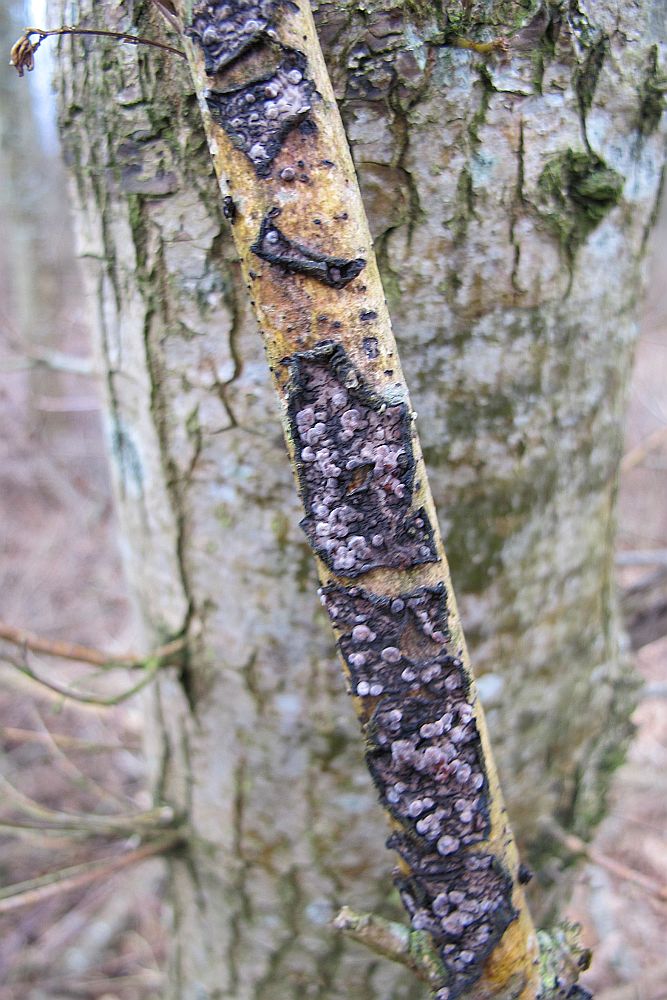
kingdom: Fungi
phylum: Basidiomycota
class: Agaricomycetes
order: Russulales
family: Peniophoraceae
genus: Peniophora
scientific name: Peniophora quercina
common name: ege-voksskind
